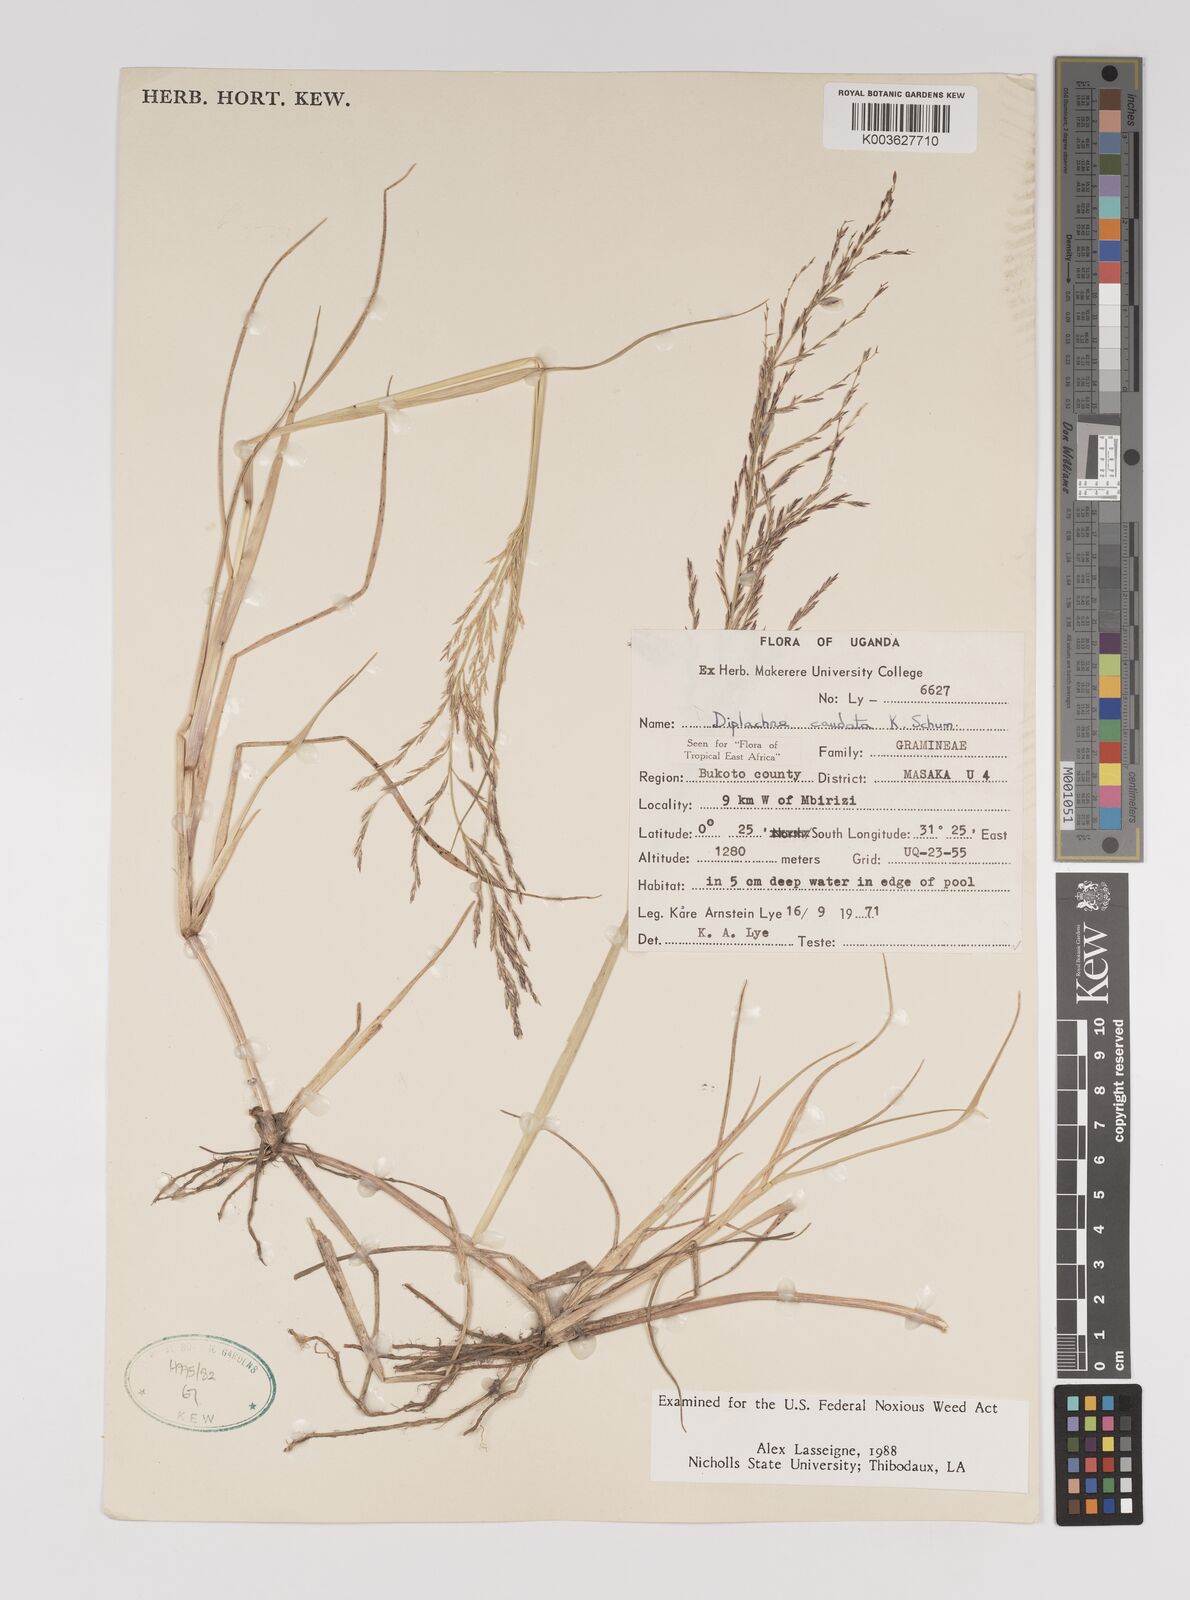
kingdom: Plantae
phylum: Tracheophyta
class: Liliopsida
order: Poales
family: Poaceae
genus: Leptochloa
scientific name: Leptochloa caudata
